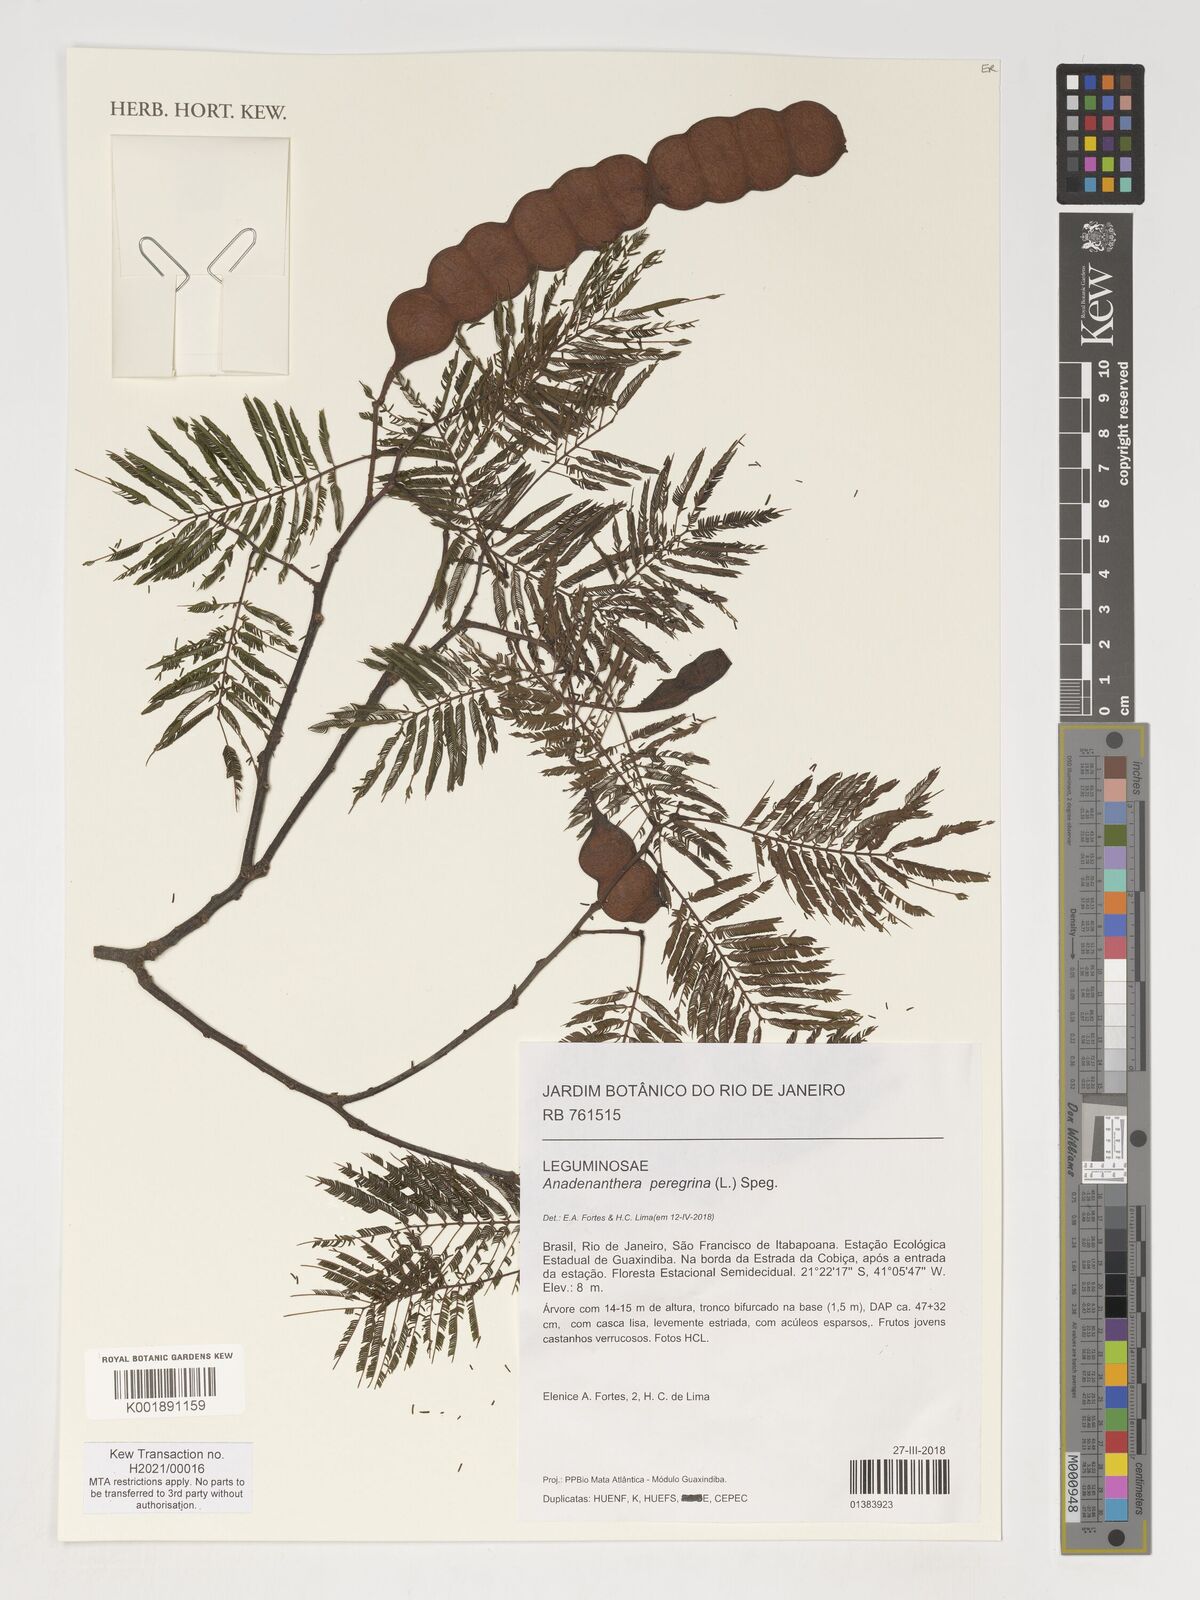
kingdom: Plantae
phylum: Tracheophyta
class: Magnoliopsida
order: Fabales
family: Fabaceae
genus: Anadenanthera
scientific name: Anadenanthera peregrina
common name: Cohoba
